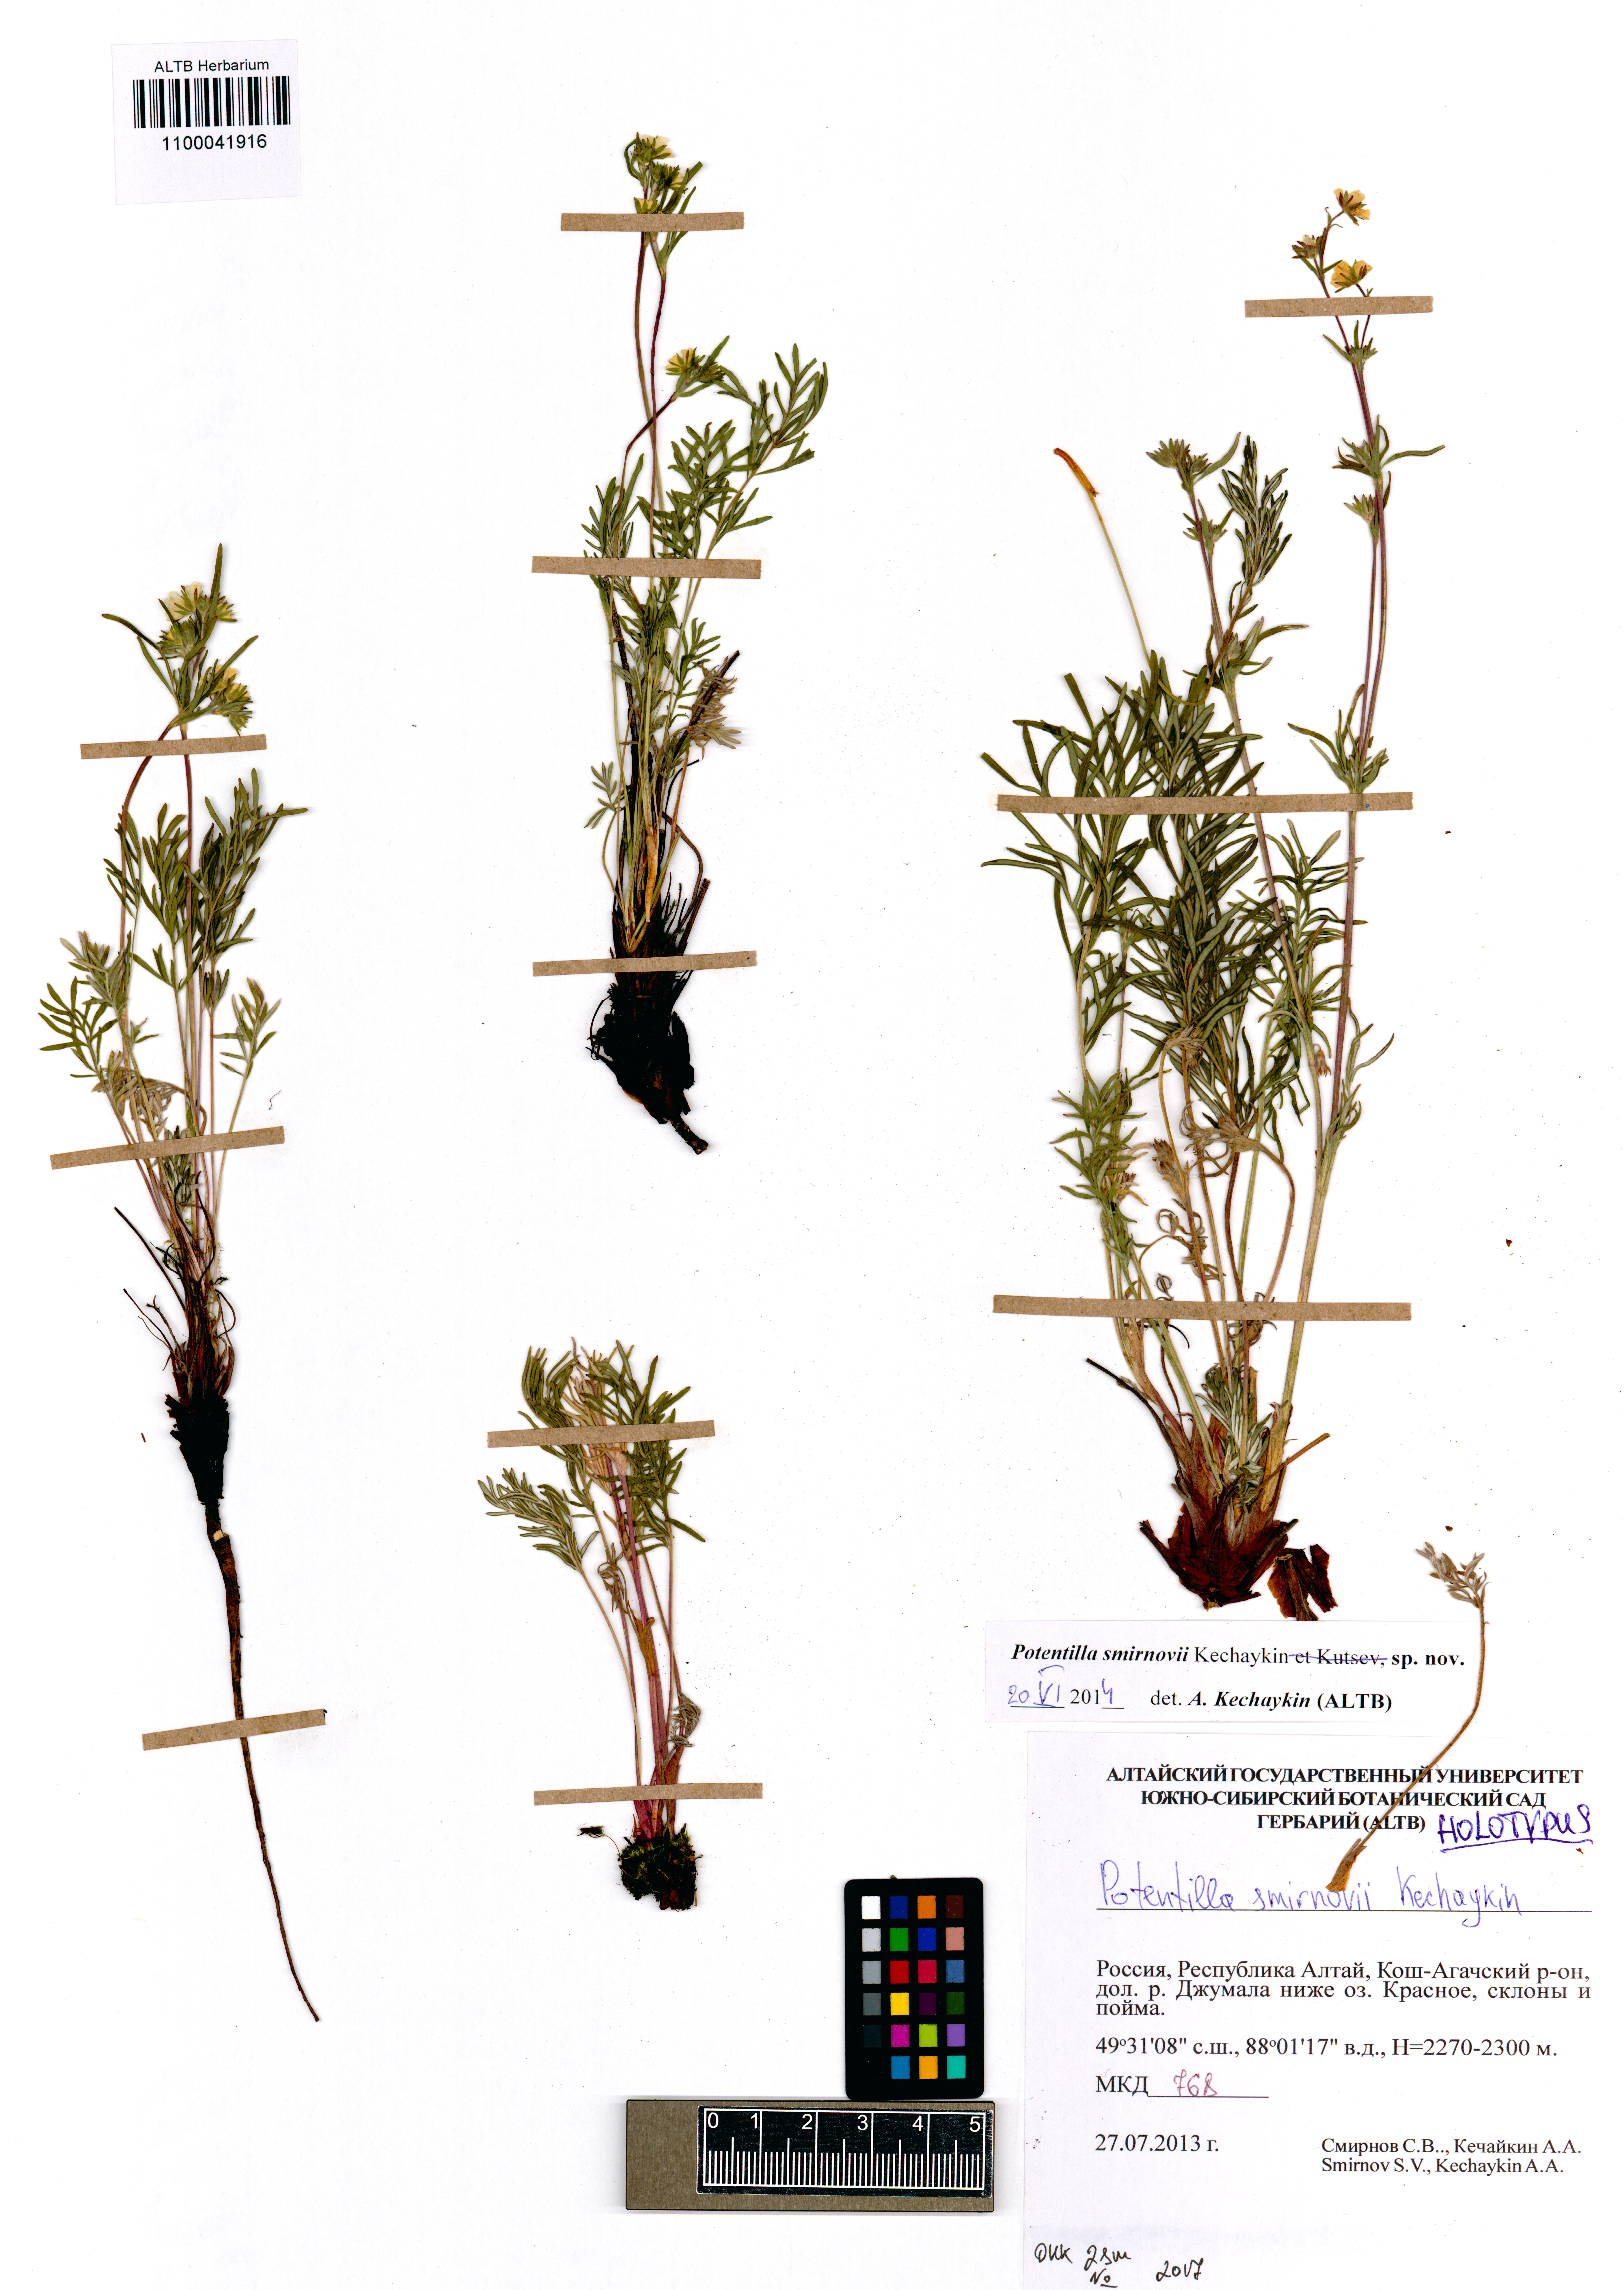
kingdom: Plantae
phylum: Tracheophyta
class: Magnoliopsida
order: Rosales
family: Rosaceae
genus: Potentilla
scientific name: Potentilla smirnovii
